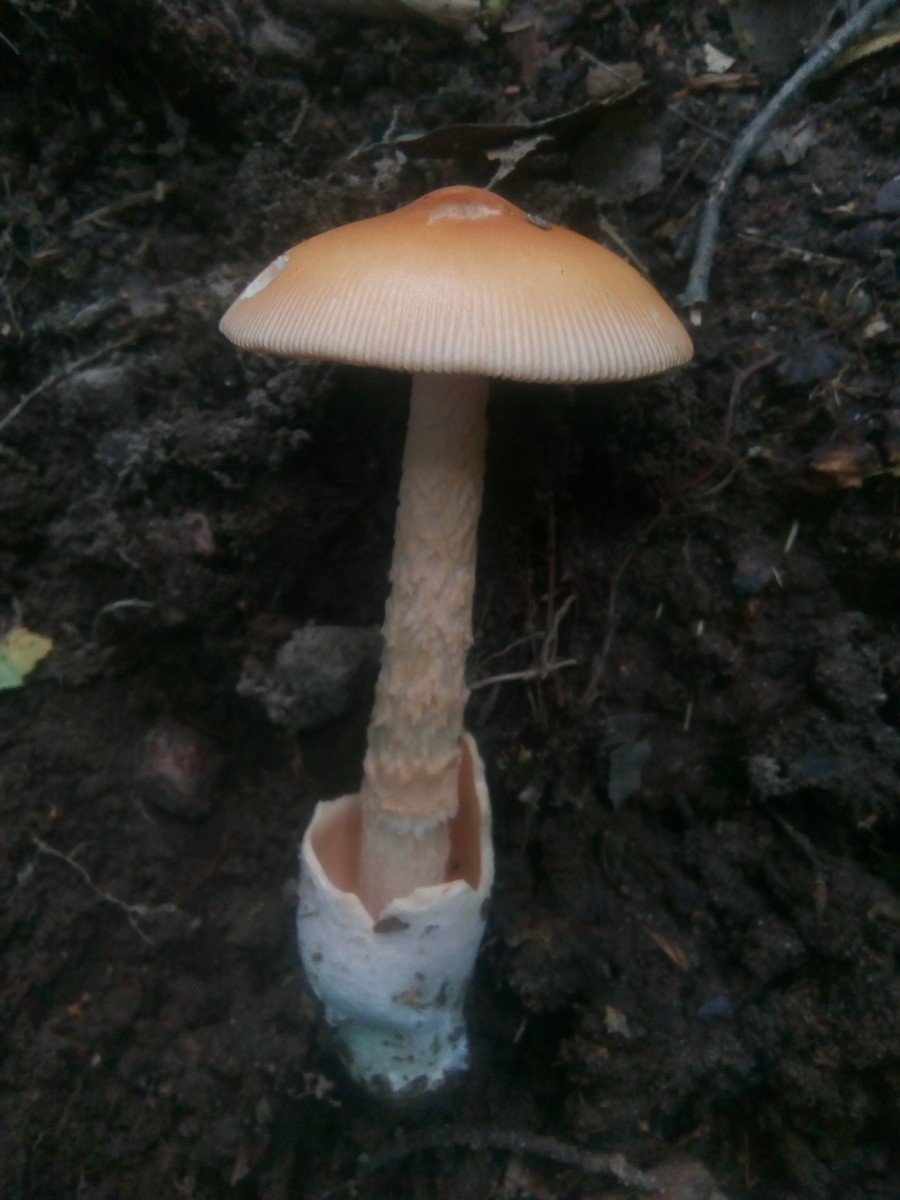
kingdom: Fungi
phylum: Basidiomycota
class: Agaricomycetes
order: Agaricales
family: Amanitaceae
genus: Amanita
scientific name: Amanita crocea
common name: gylden kam-fluesvamp
